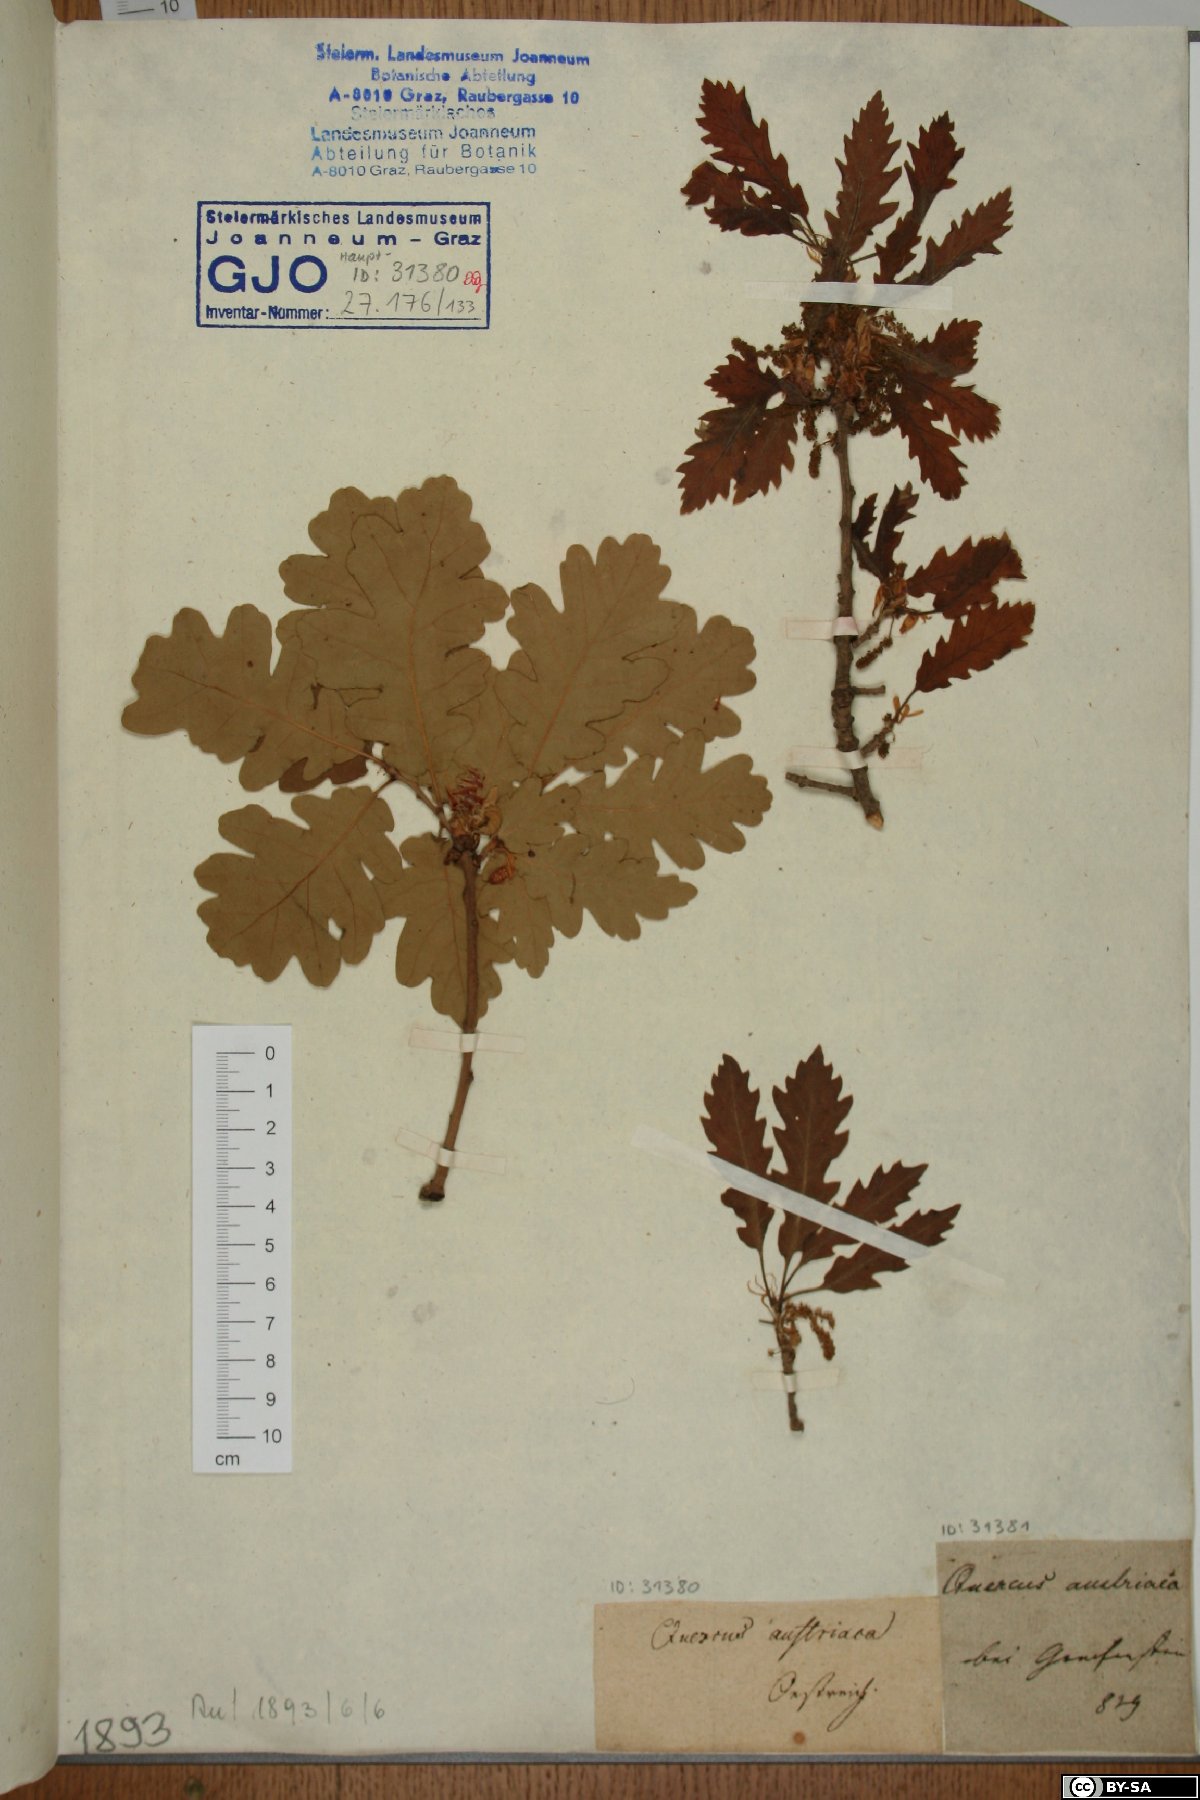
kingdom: Plantae
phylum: Tracheophyta
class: Magnoliopsida
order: Fagales
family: Fagaceae
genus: Quercus
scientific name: Quercus cerris
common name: Turkey oak
